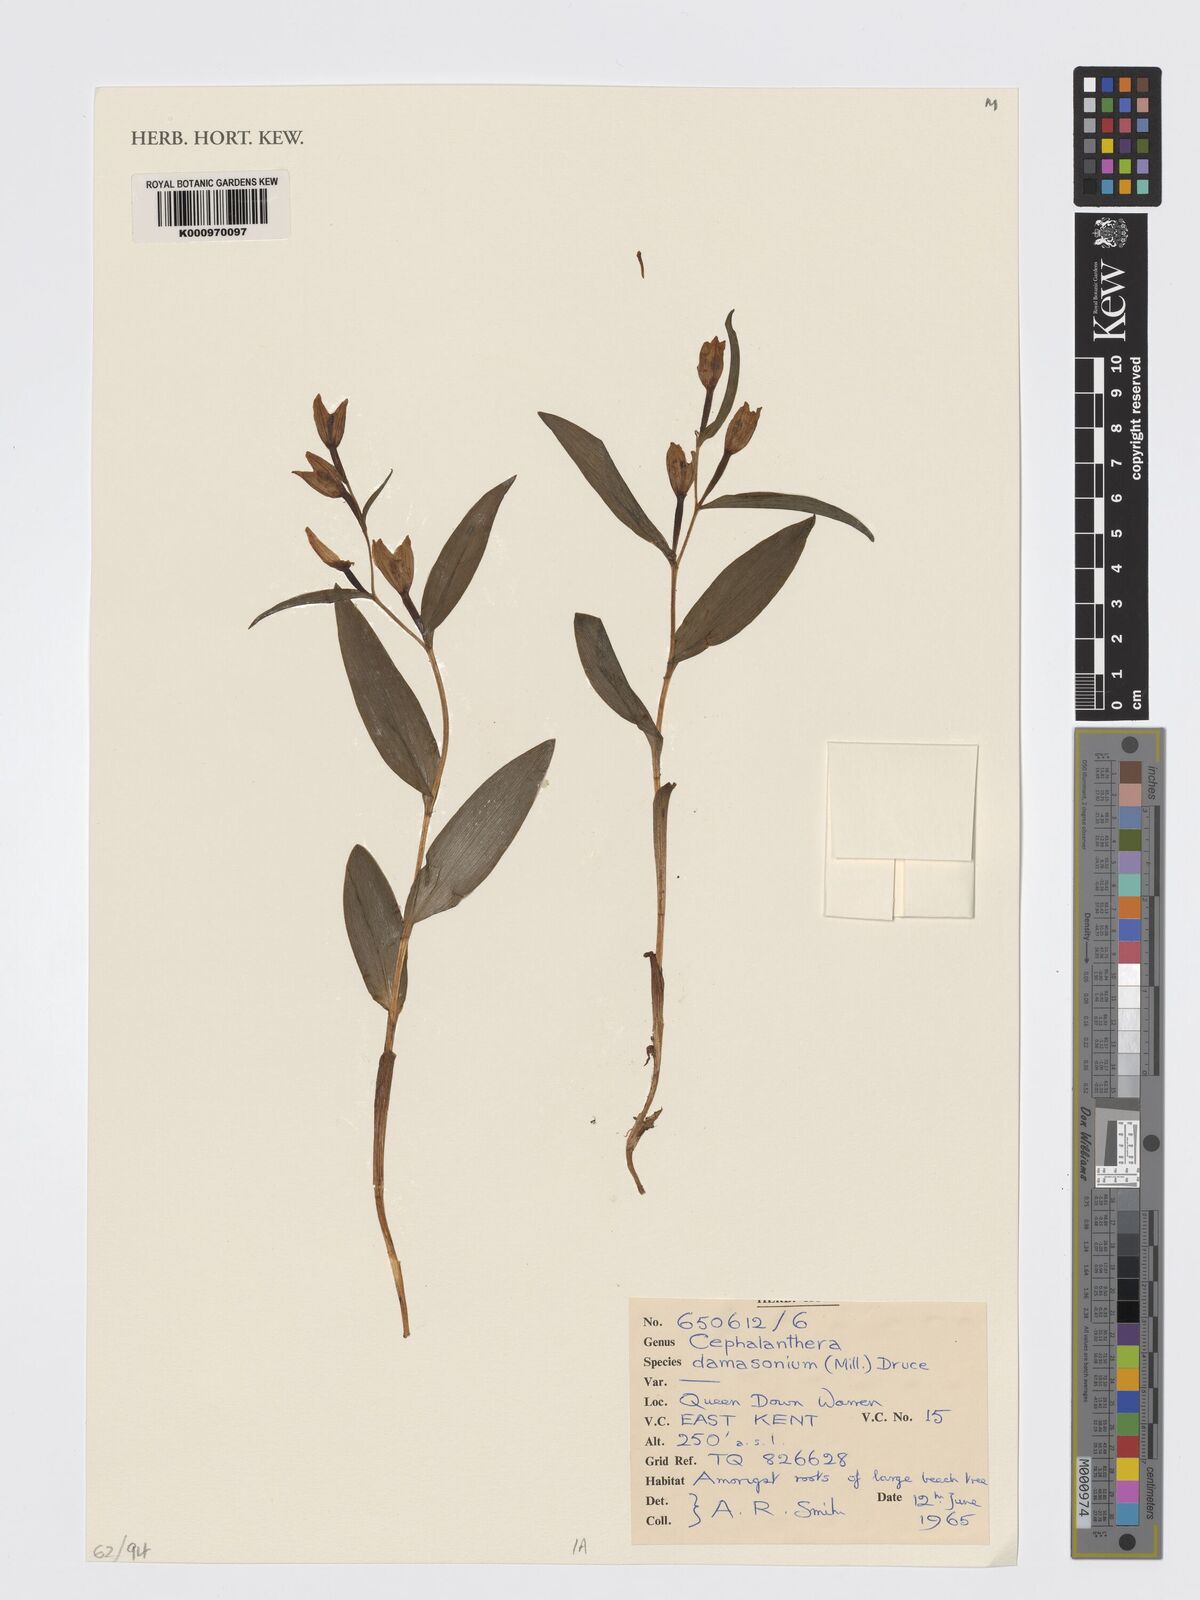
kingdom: Plantae
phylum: Tracheophyta
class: Liliopsida
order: Asparagales
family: Orchidaceae
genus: Cephalanthera
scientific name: Cephalanthera damasonium
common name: White helleborine
